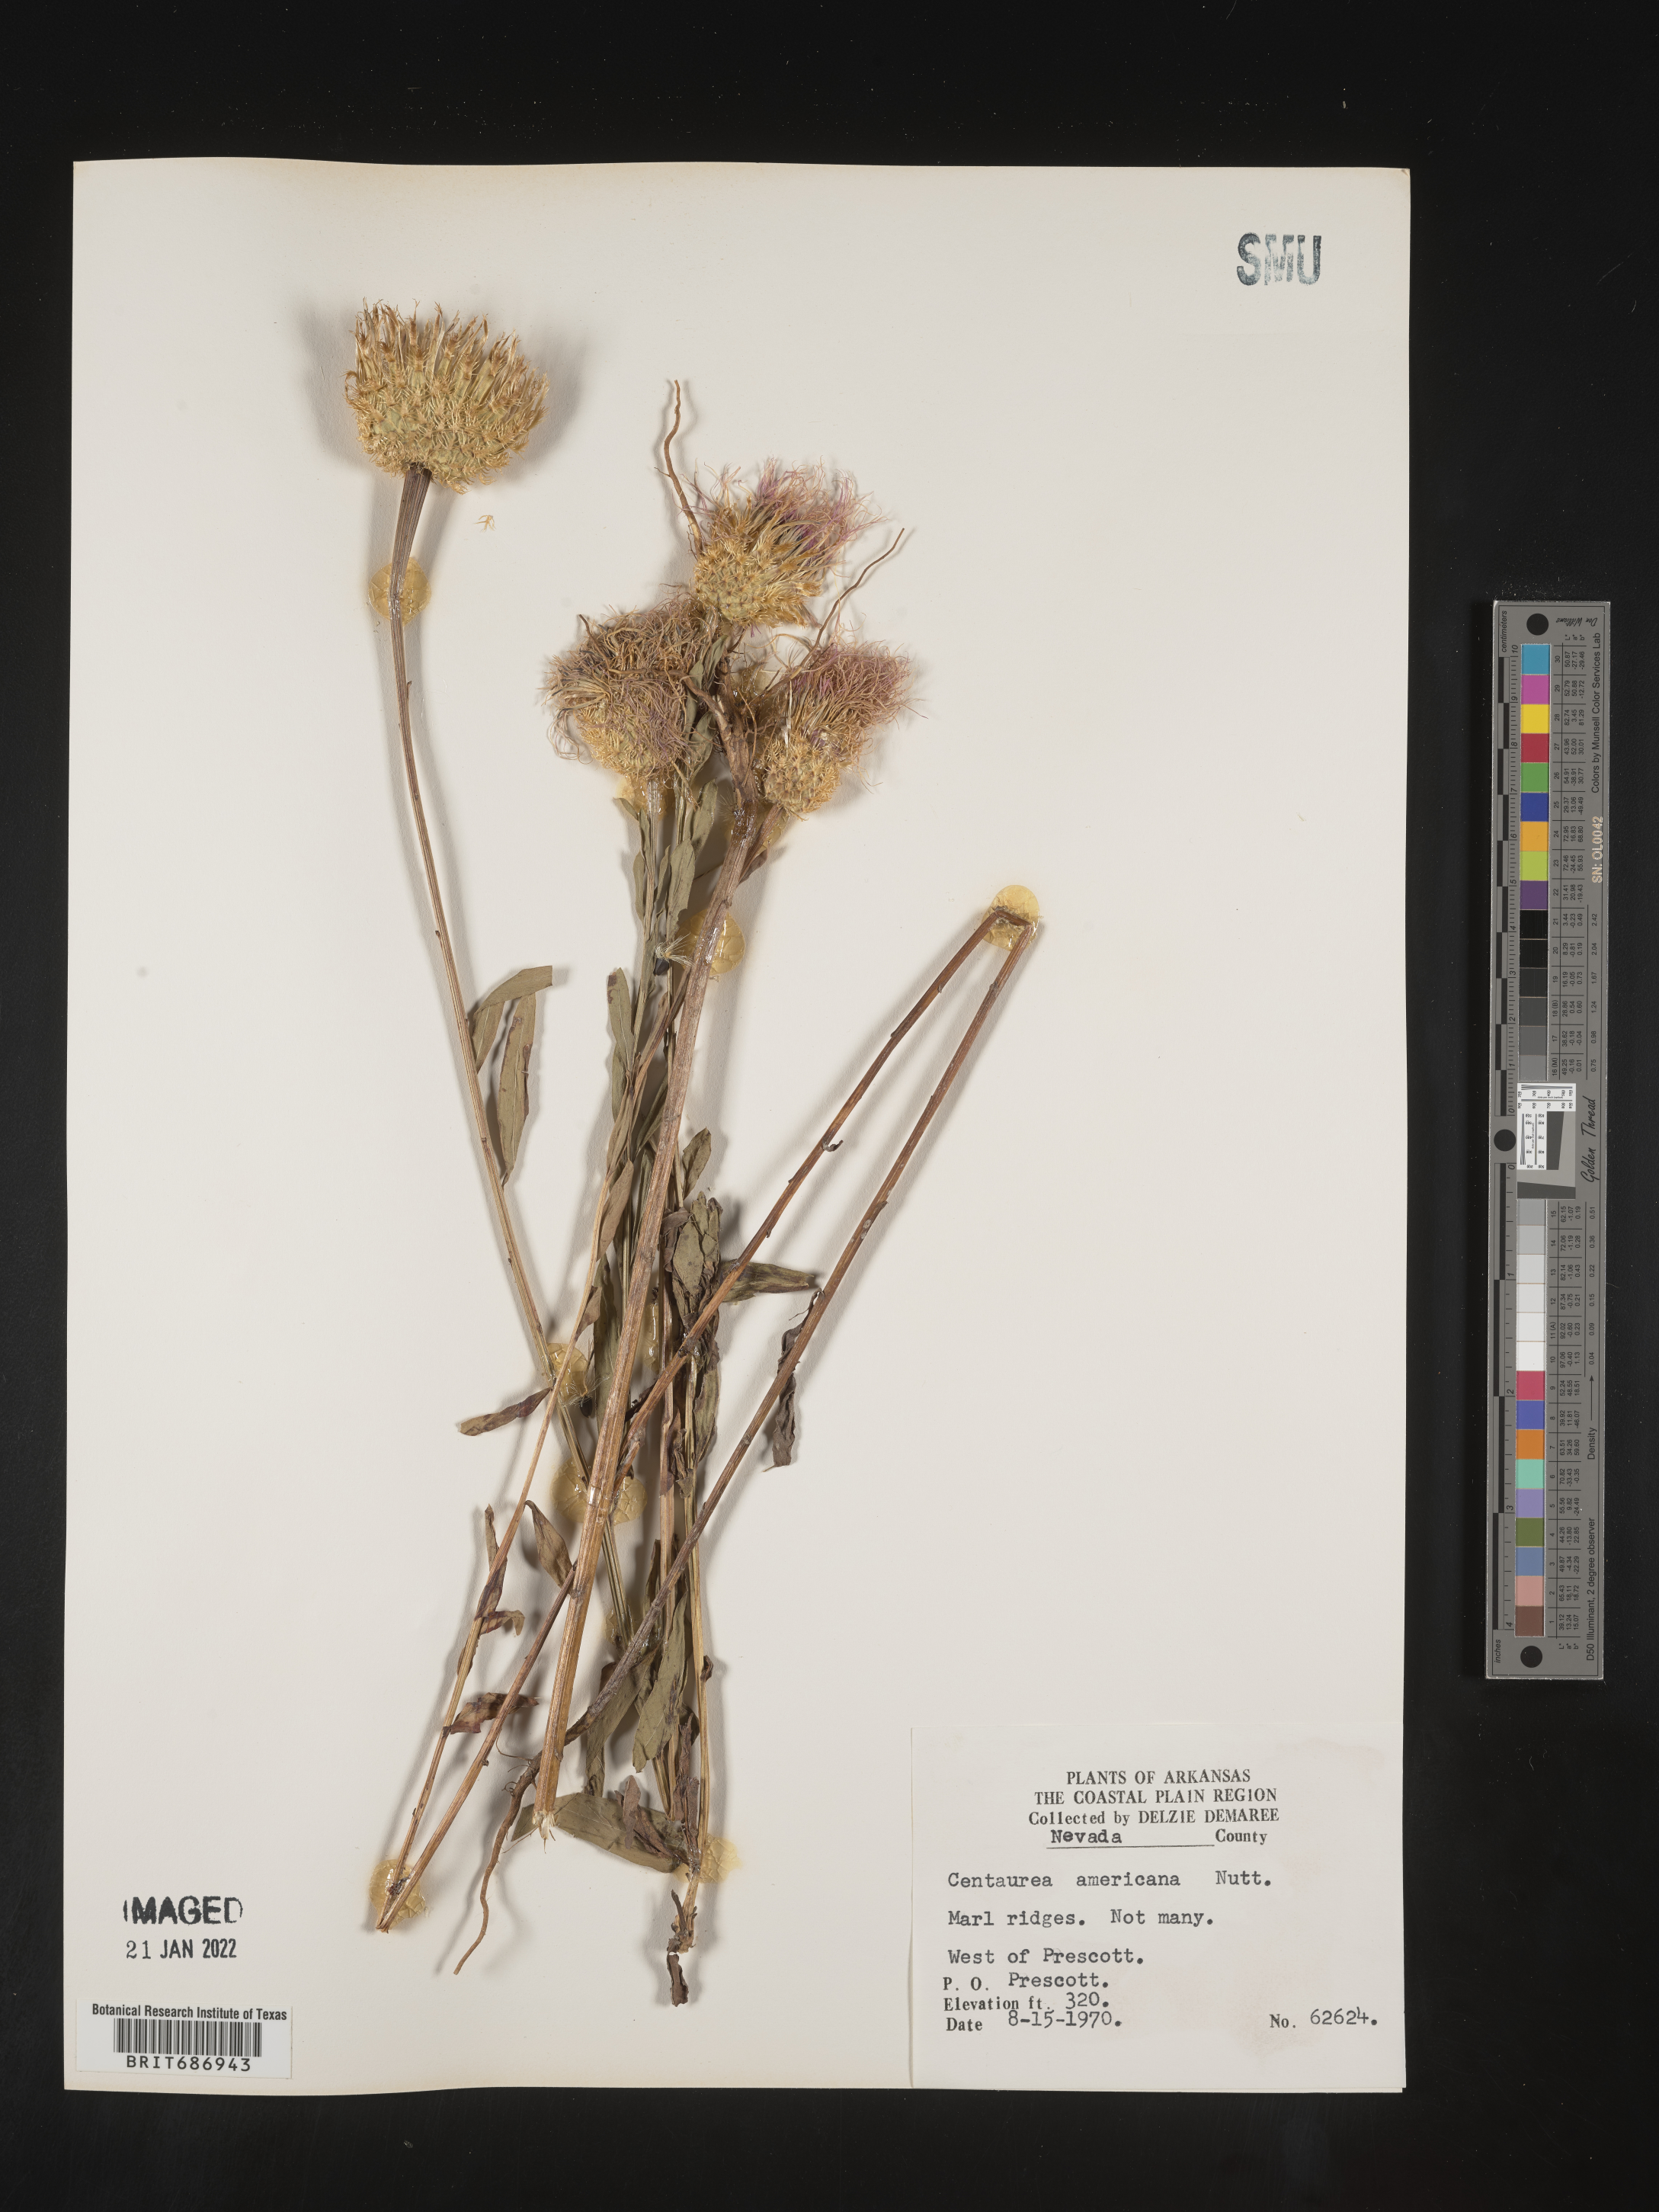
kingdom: Plantae
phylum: Tracheophyta
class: Magnoliopsida
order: Asterales
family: Asteraceae
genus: Plectocephalus
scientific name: Plectocephalus americanus
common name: American basket-flower
